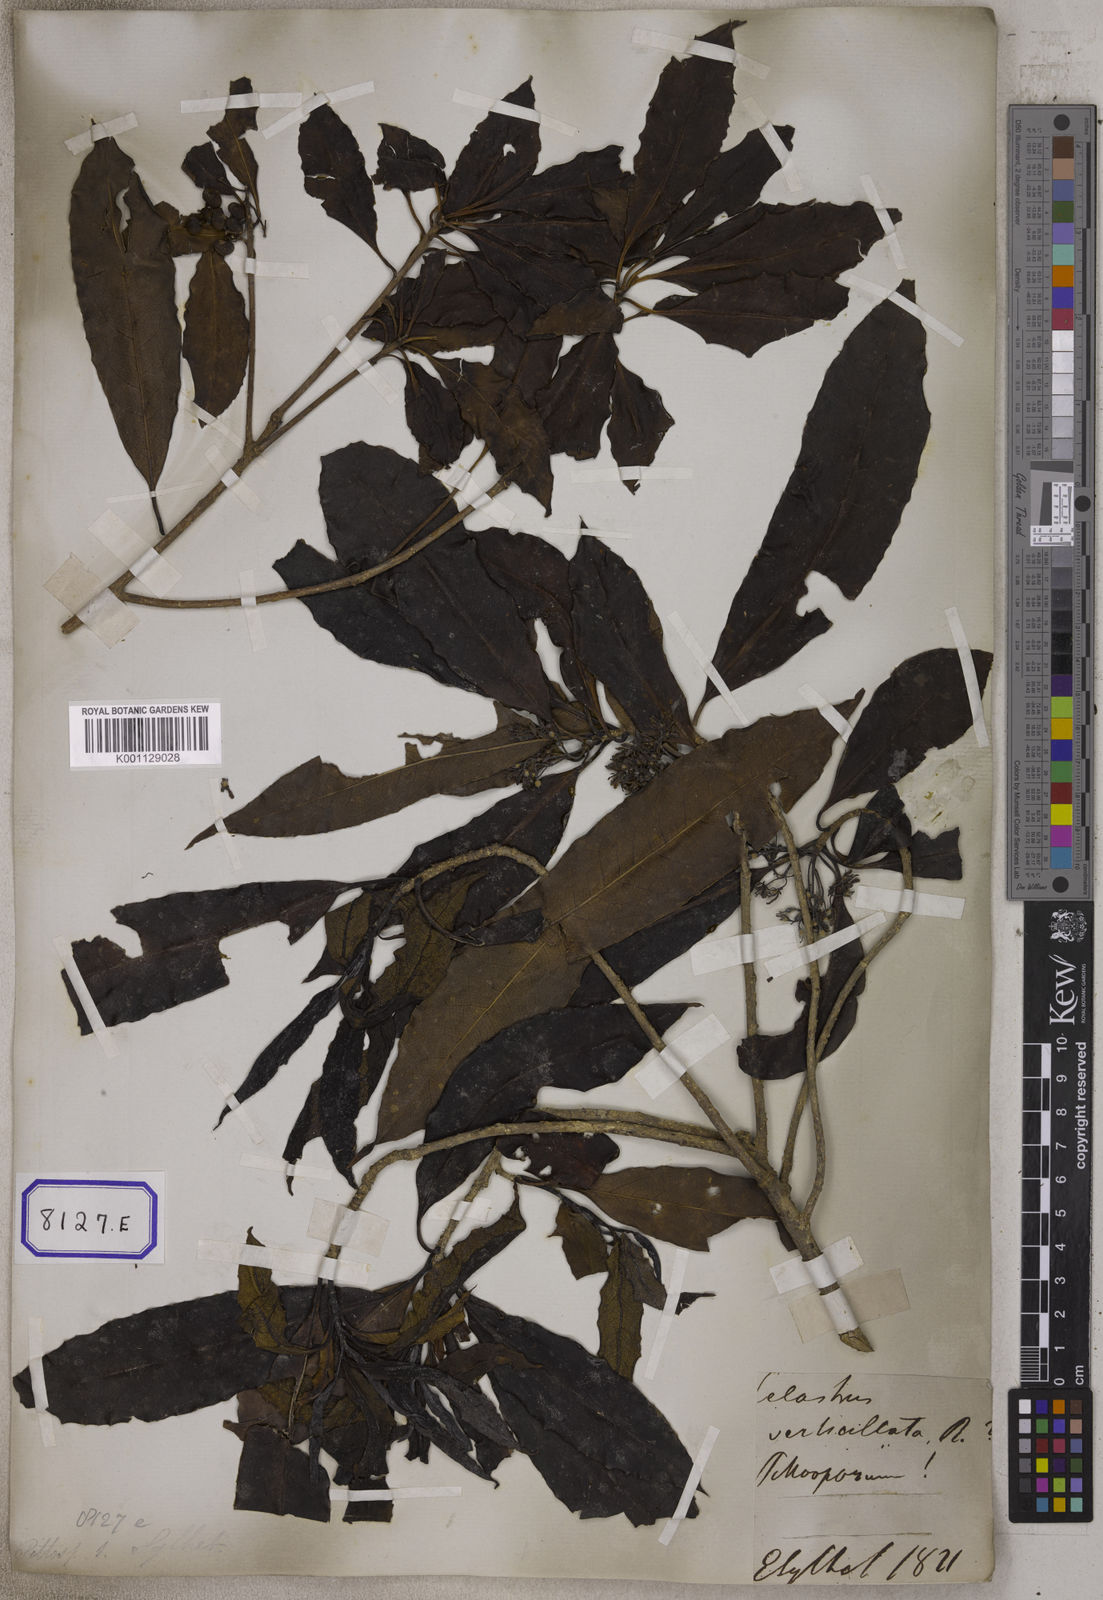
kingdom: Plantae
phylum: Tracheophyta
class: Magnoliopsida
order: Apiales
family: Pittosporaceae
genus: Pittosporum
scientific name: Pittosporum
